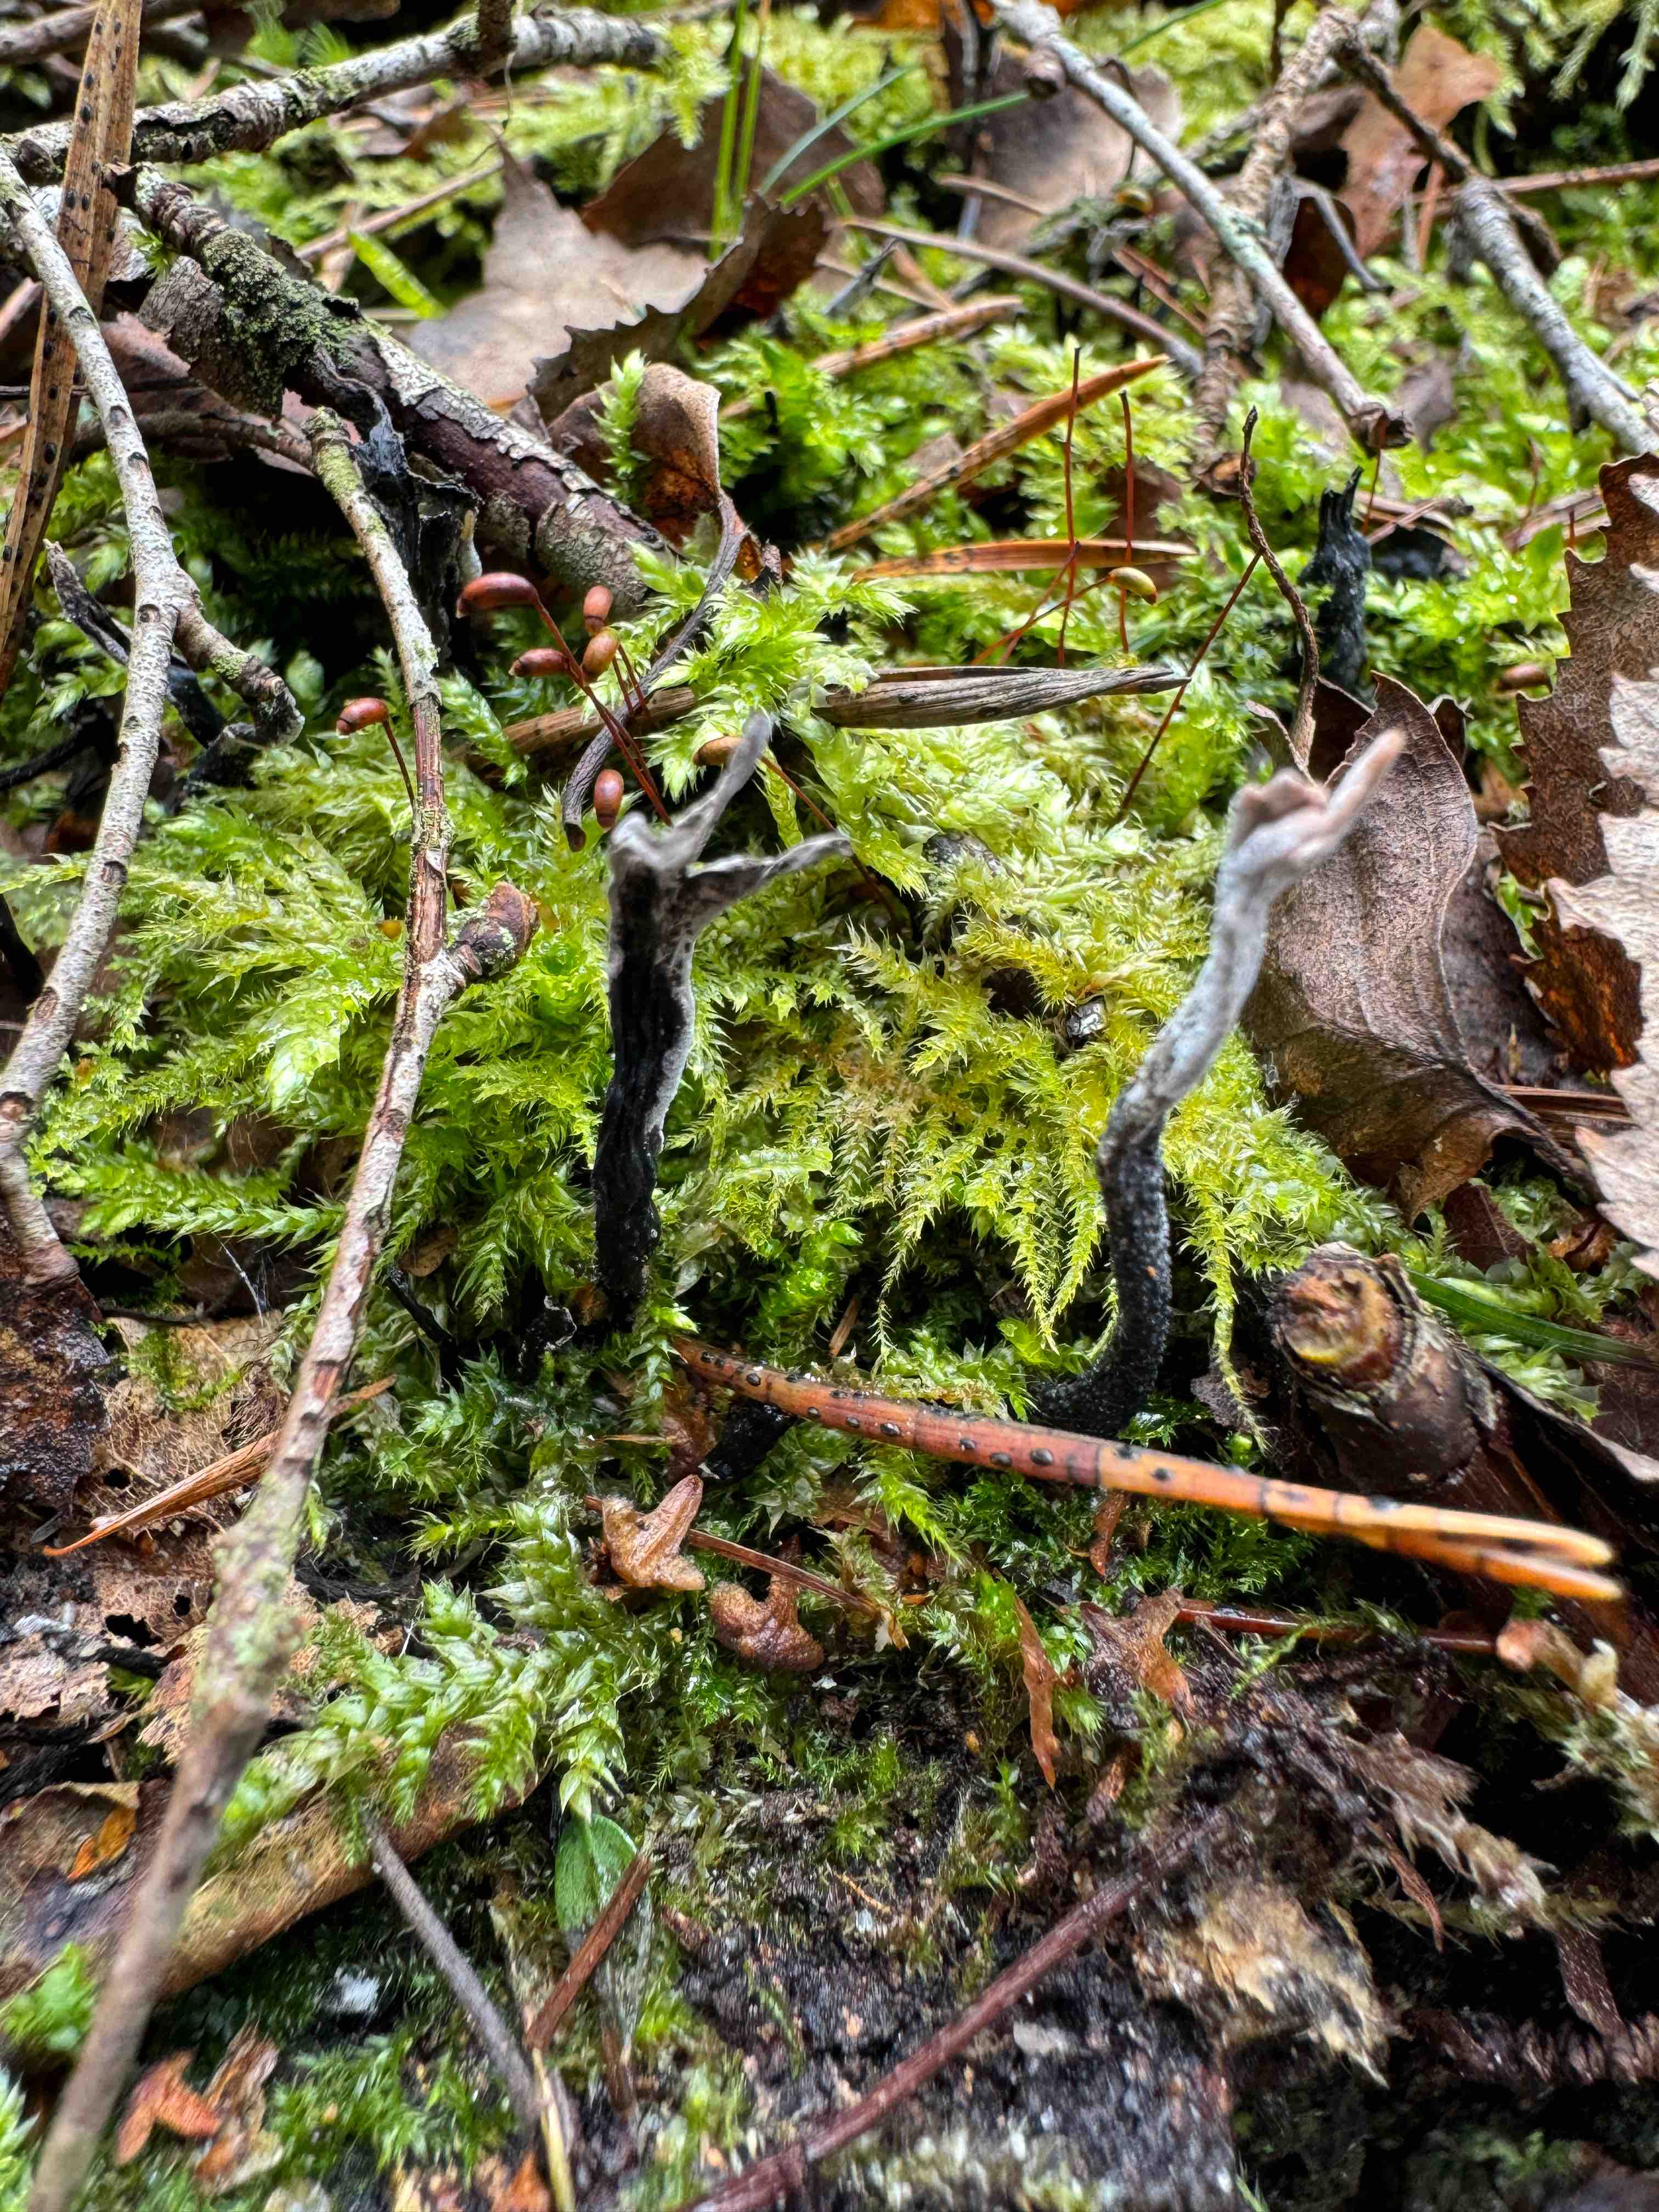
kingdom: Fungi
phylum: Ascomycota
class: Sordariomycetes
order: Xylariales
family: Xylariaceae
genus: Xylaria
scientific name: Xylaria hypoxylon
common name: grenet stødsvamp
